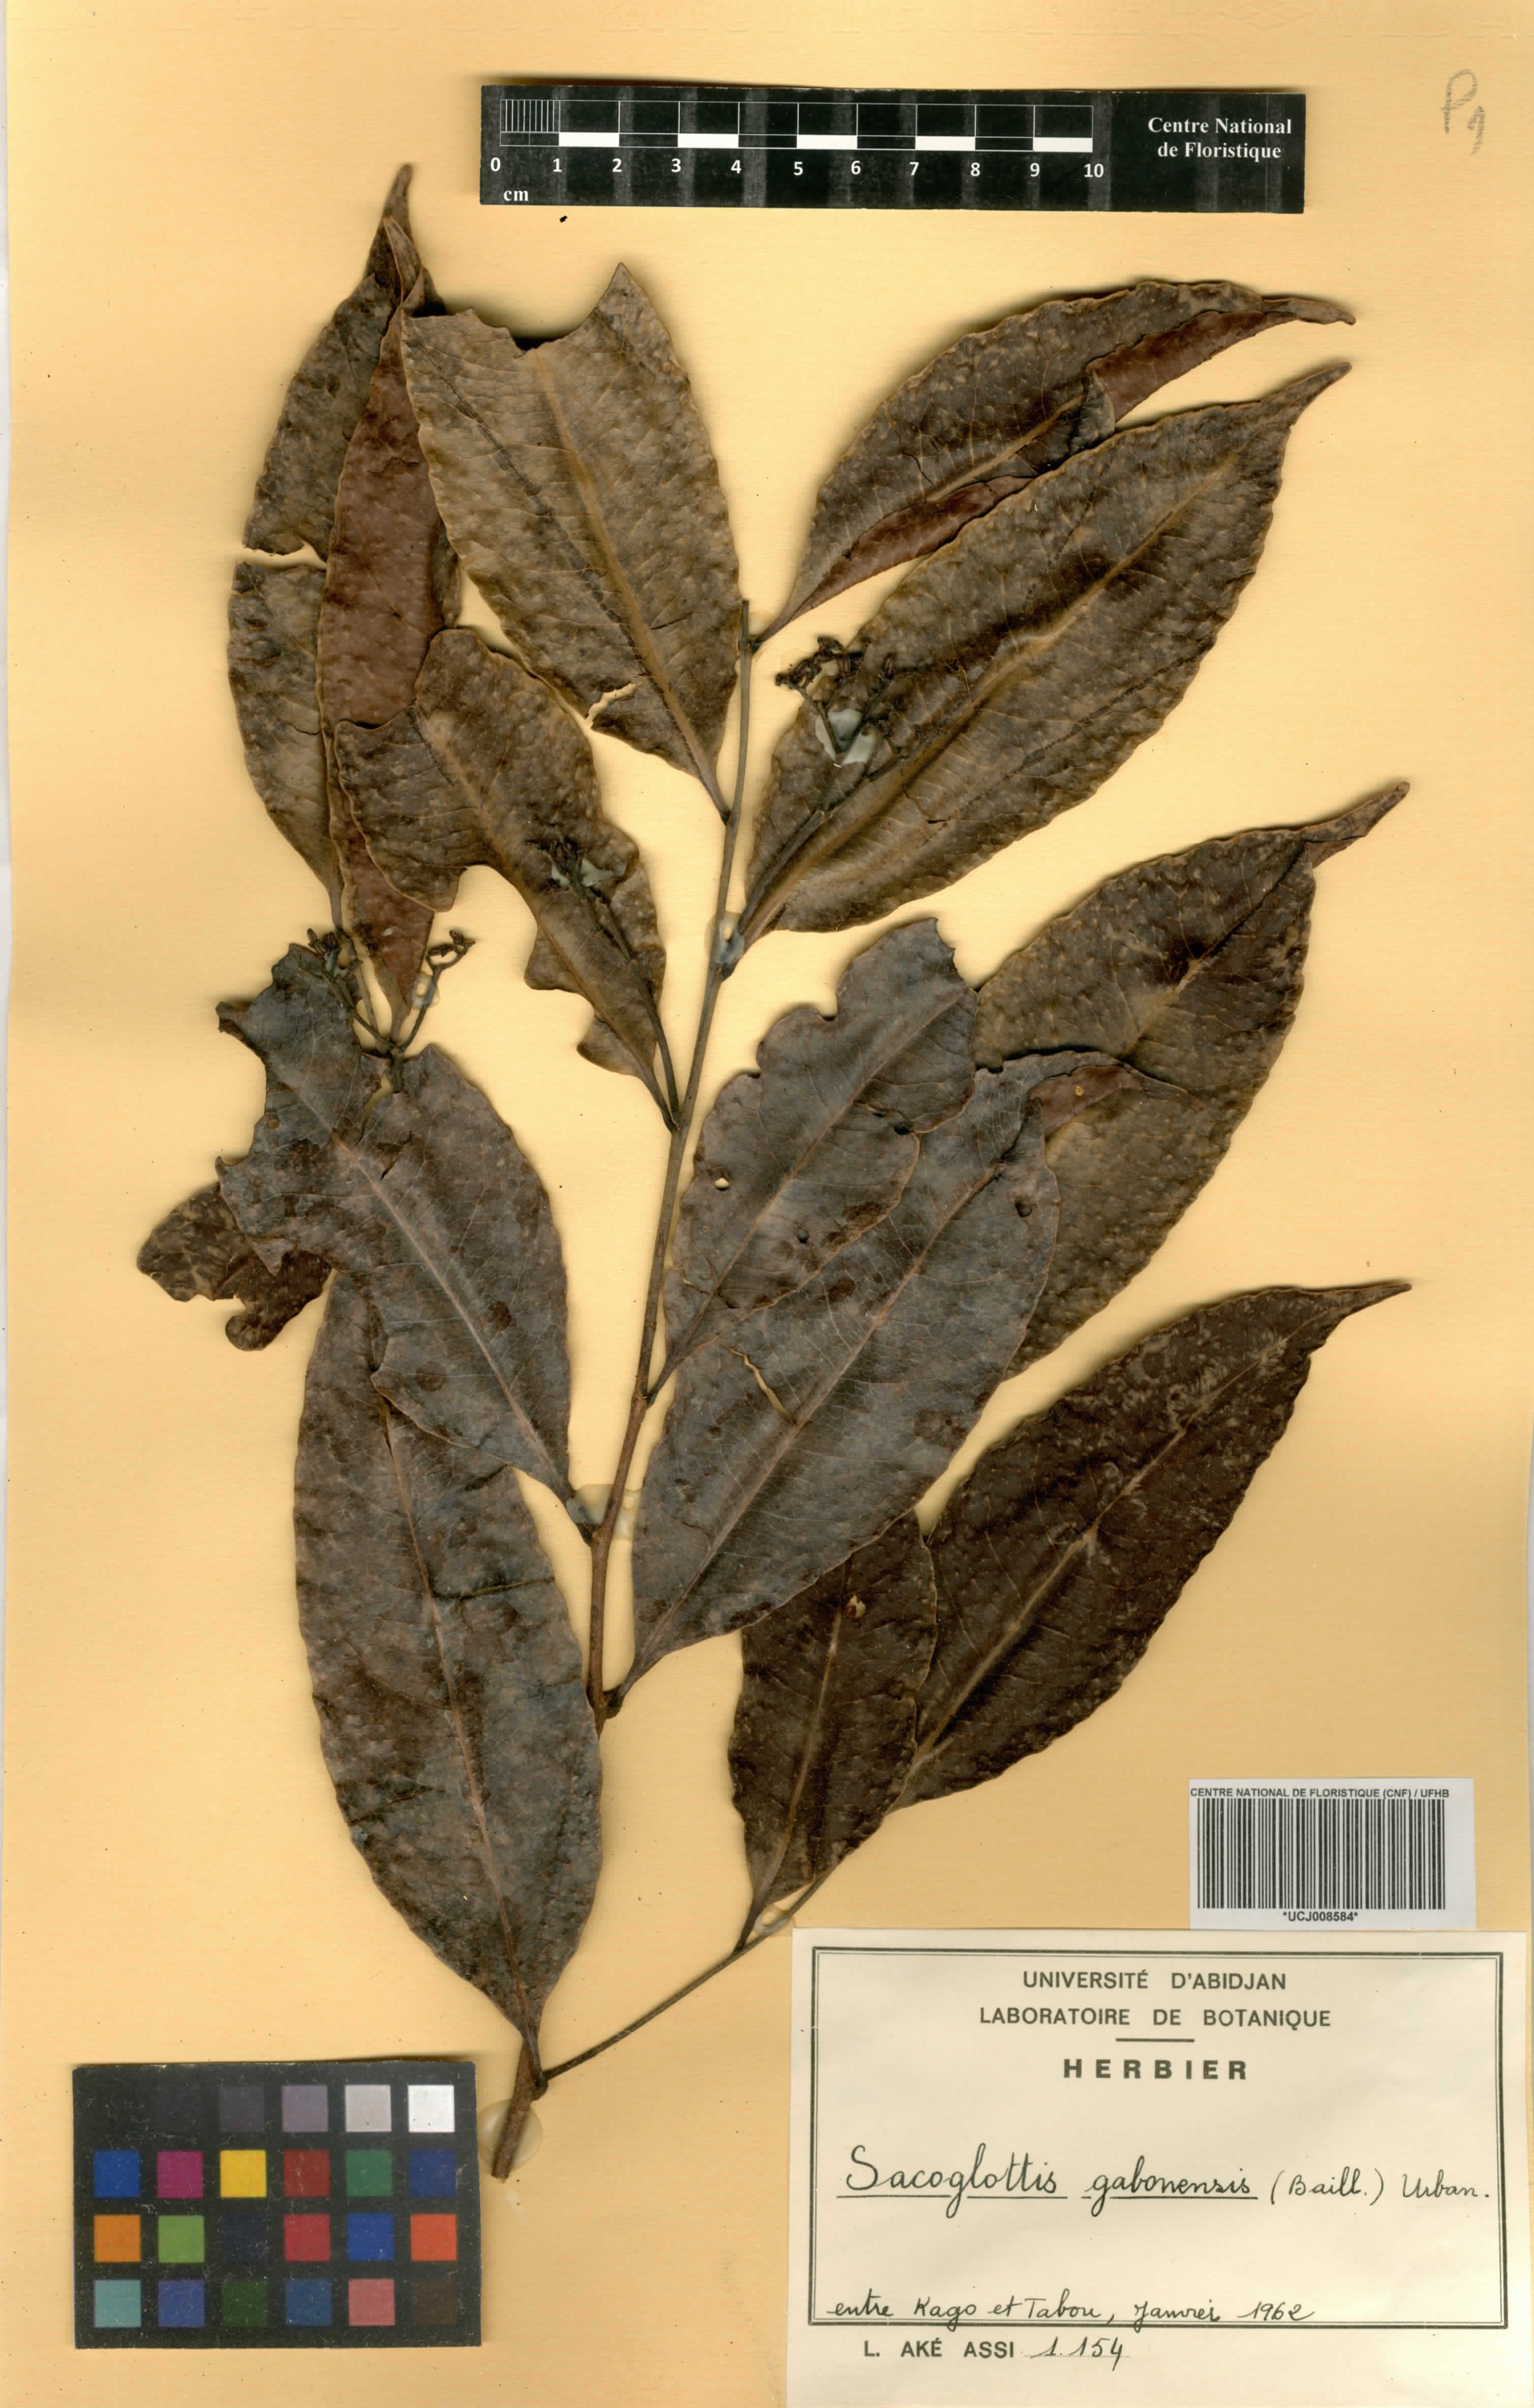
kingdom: Plantae
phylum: Tracheophyta
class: Magnoliopsida
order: Malpighiales
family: Humiriaceae
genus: Sacoglottis
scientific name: Sacoglottis gabonensis
